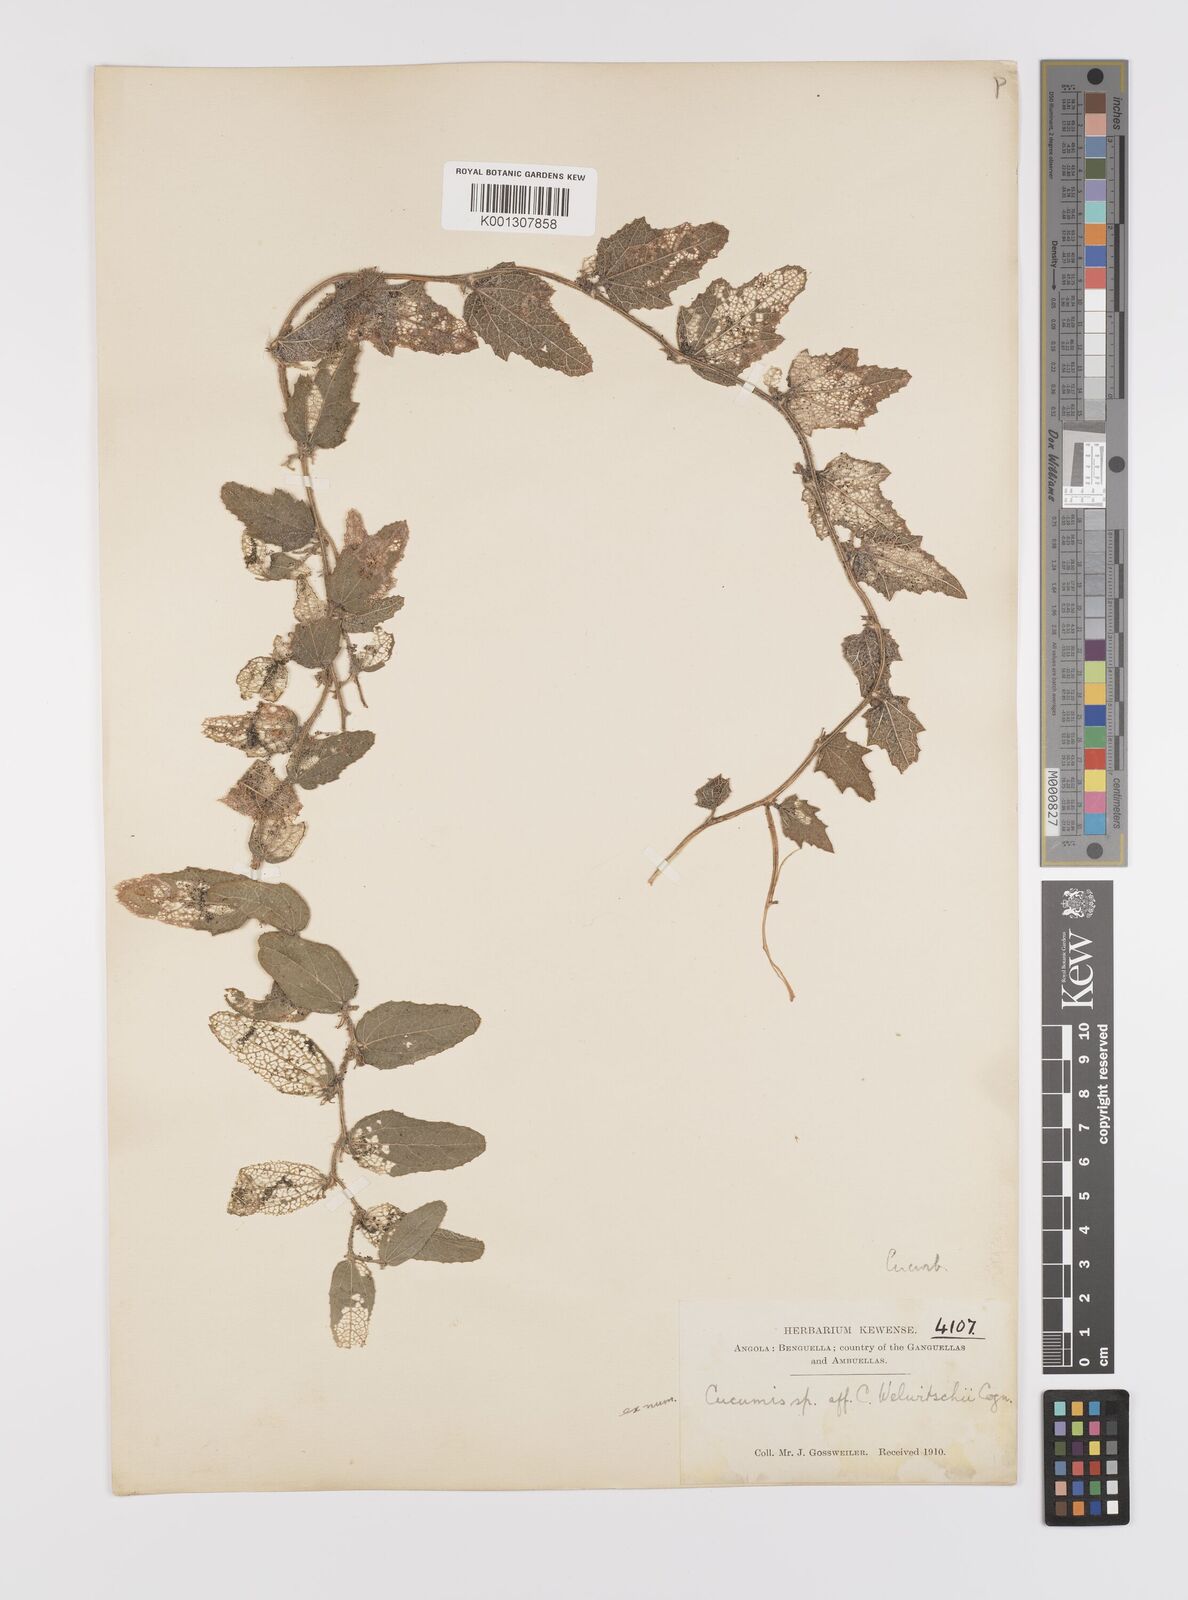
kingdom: Plantae
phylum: Tracheophyta
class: Magnoliopsida
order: Cucurbitales
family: Cucurbitaceae
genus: Cucumis
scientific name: Cucumis hirsutus
